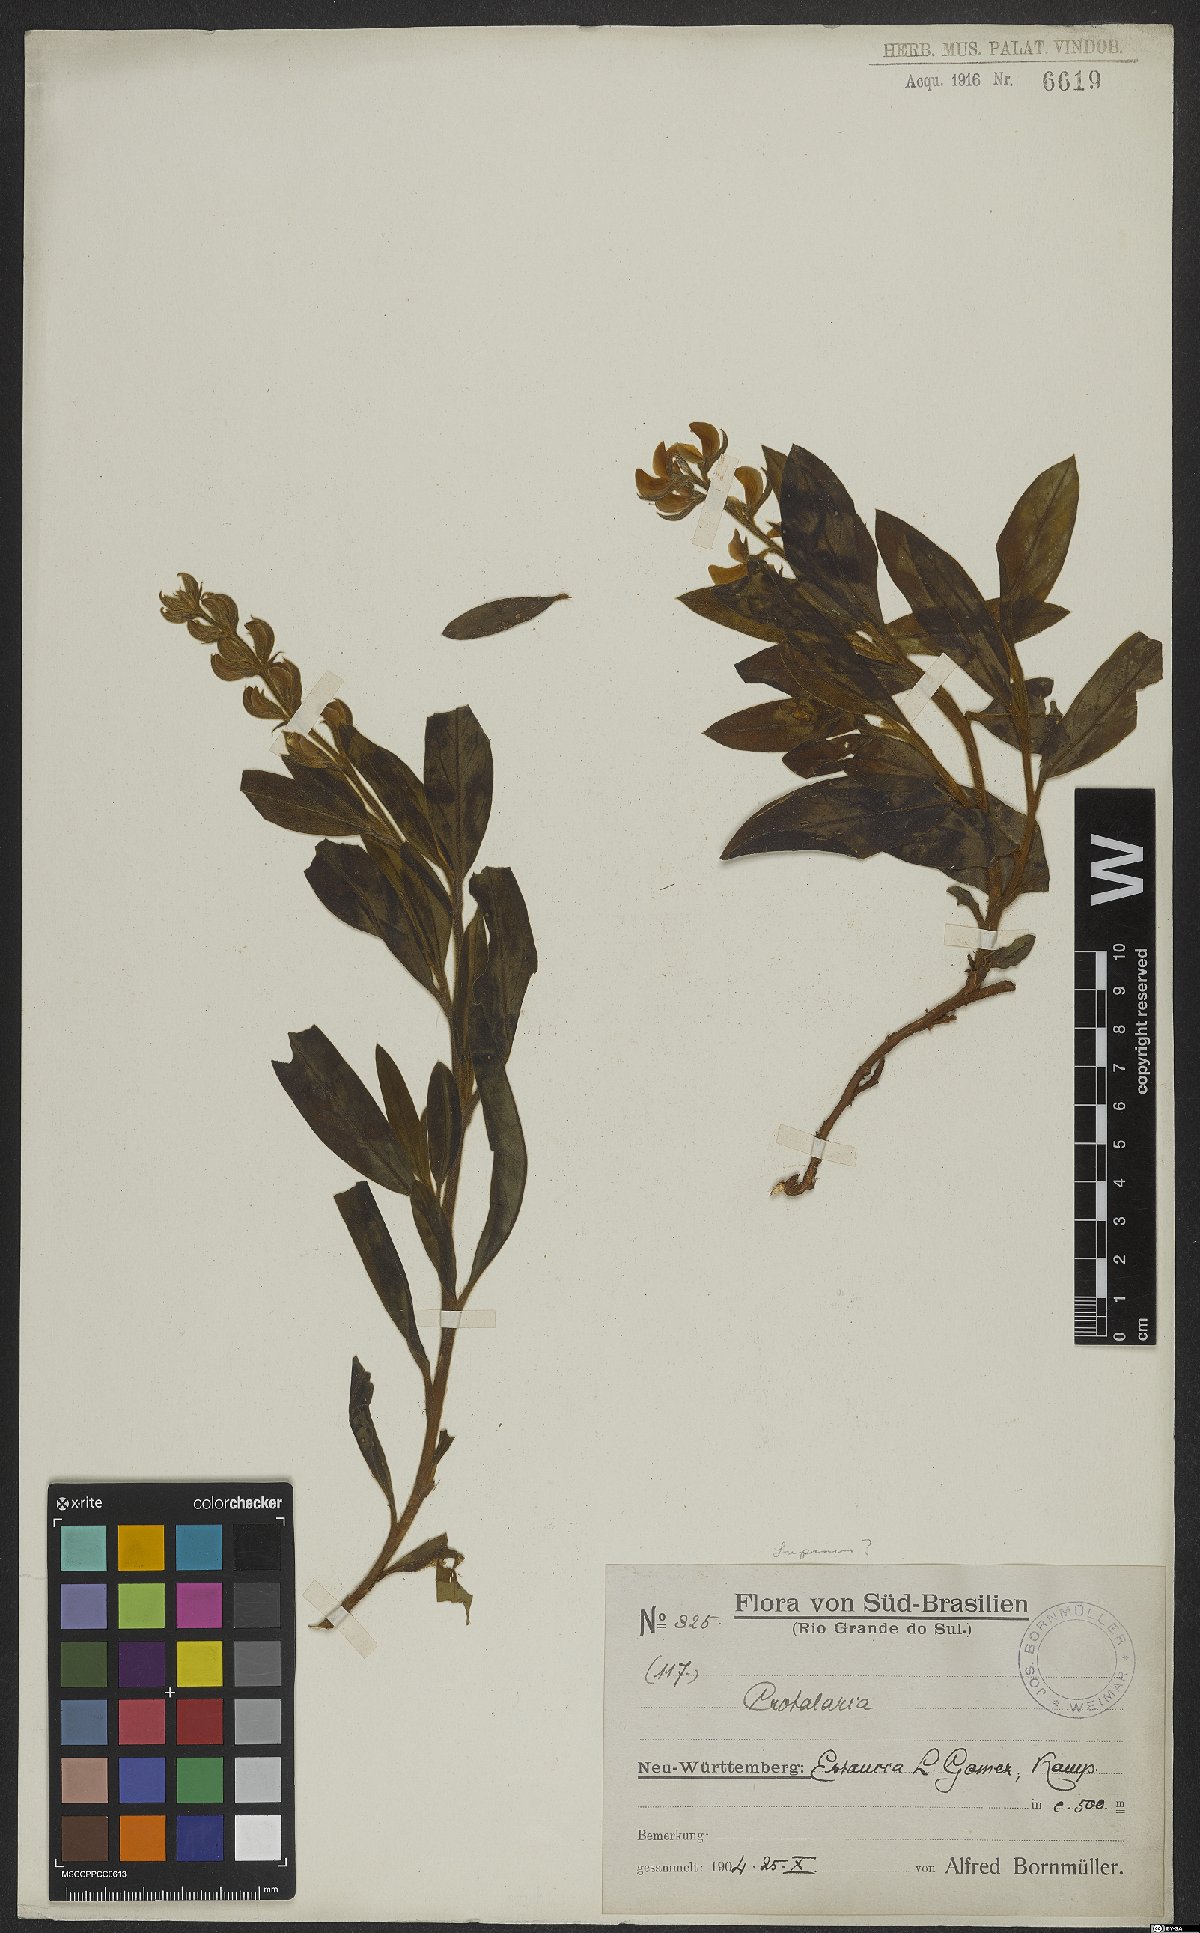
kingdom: Plantae
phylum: Tracheophyta
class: Magnoliopsida
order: Fabales
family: Fabaceae
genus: Crotalaria
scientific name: Crotalaria
